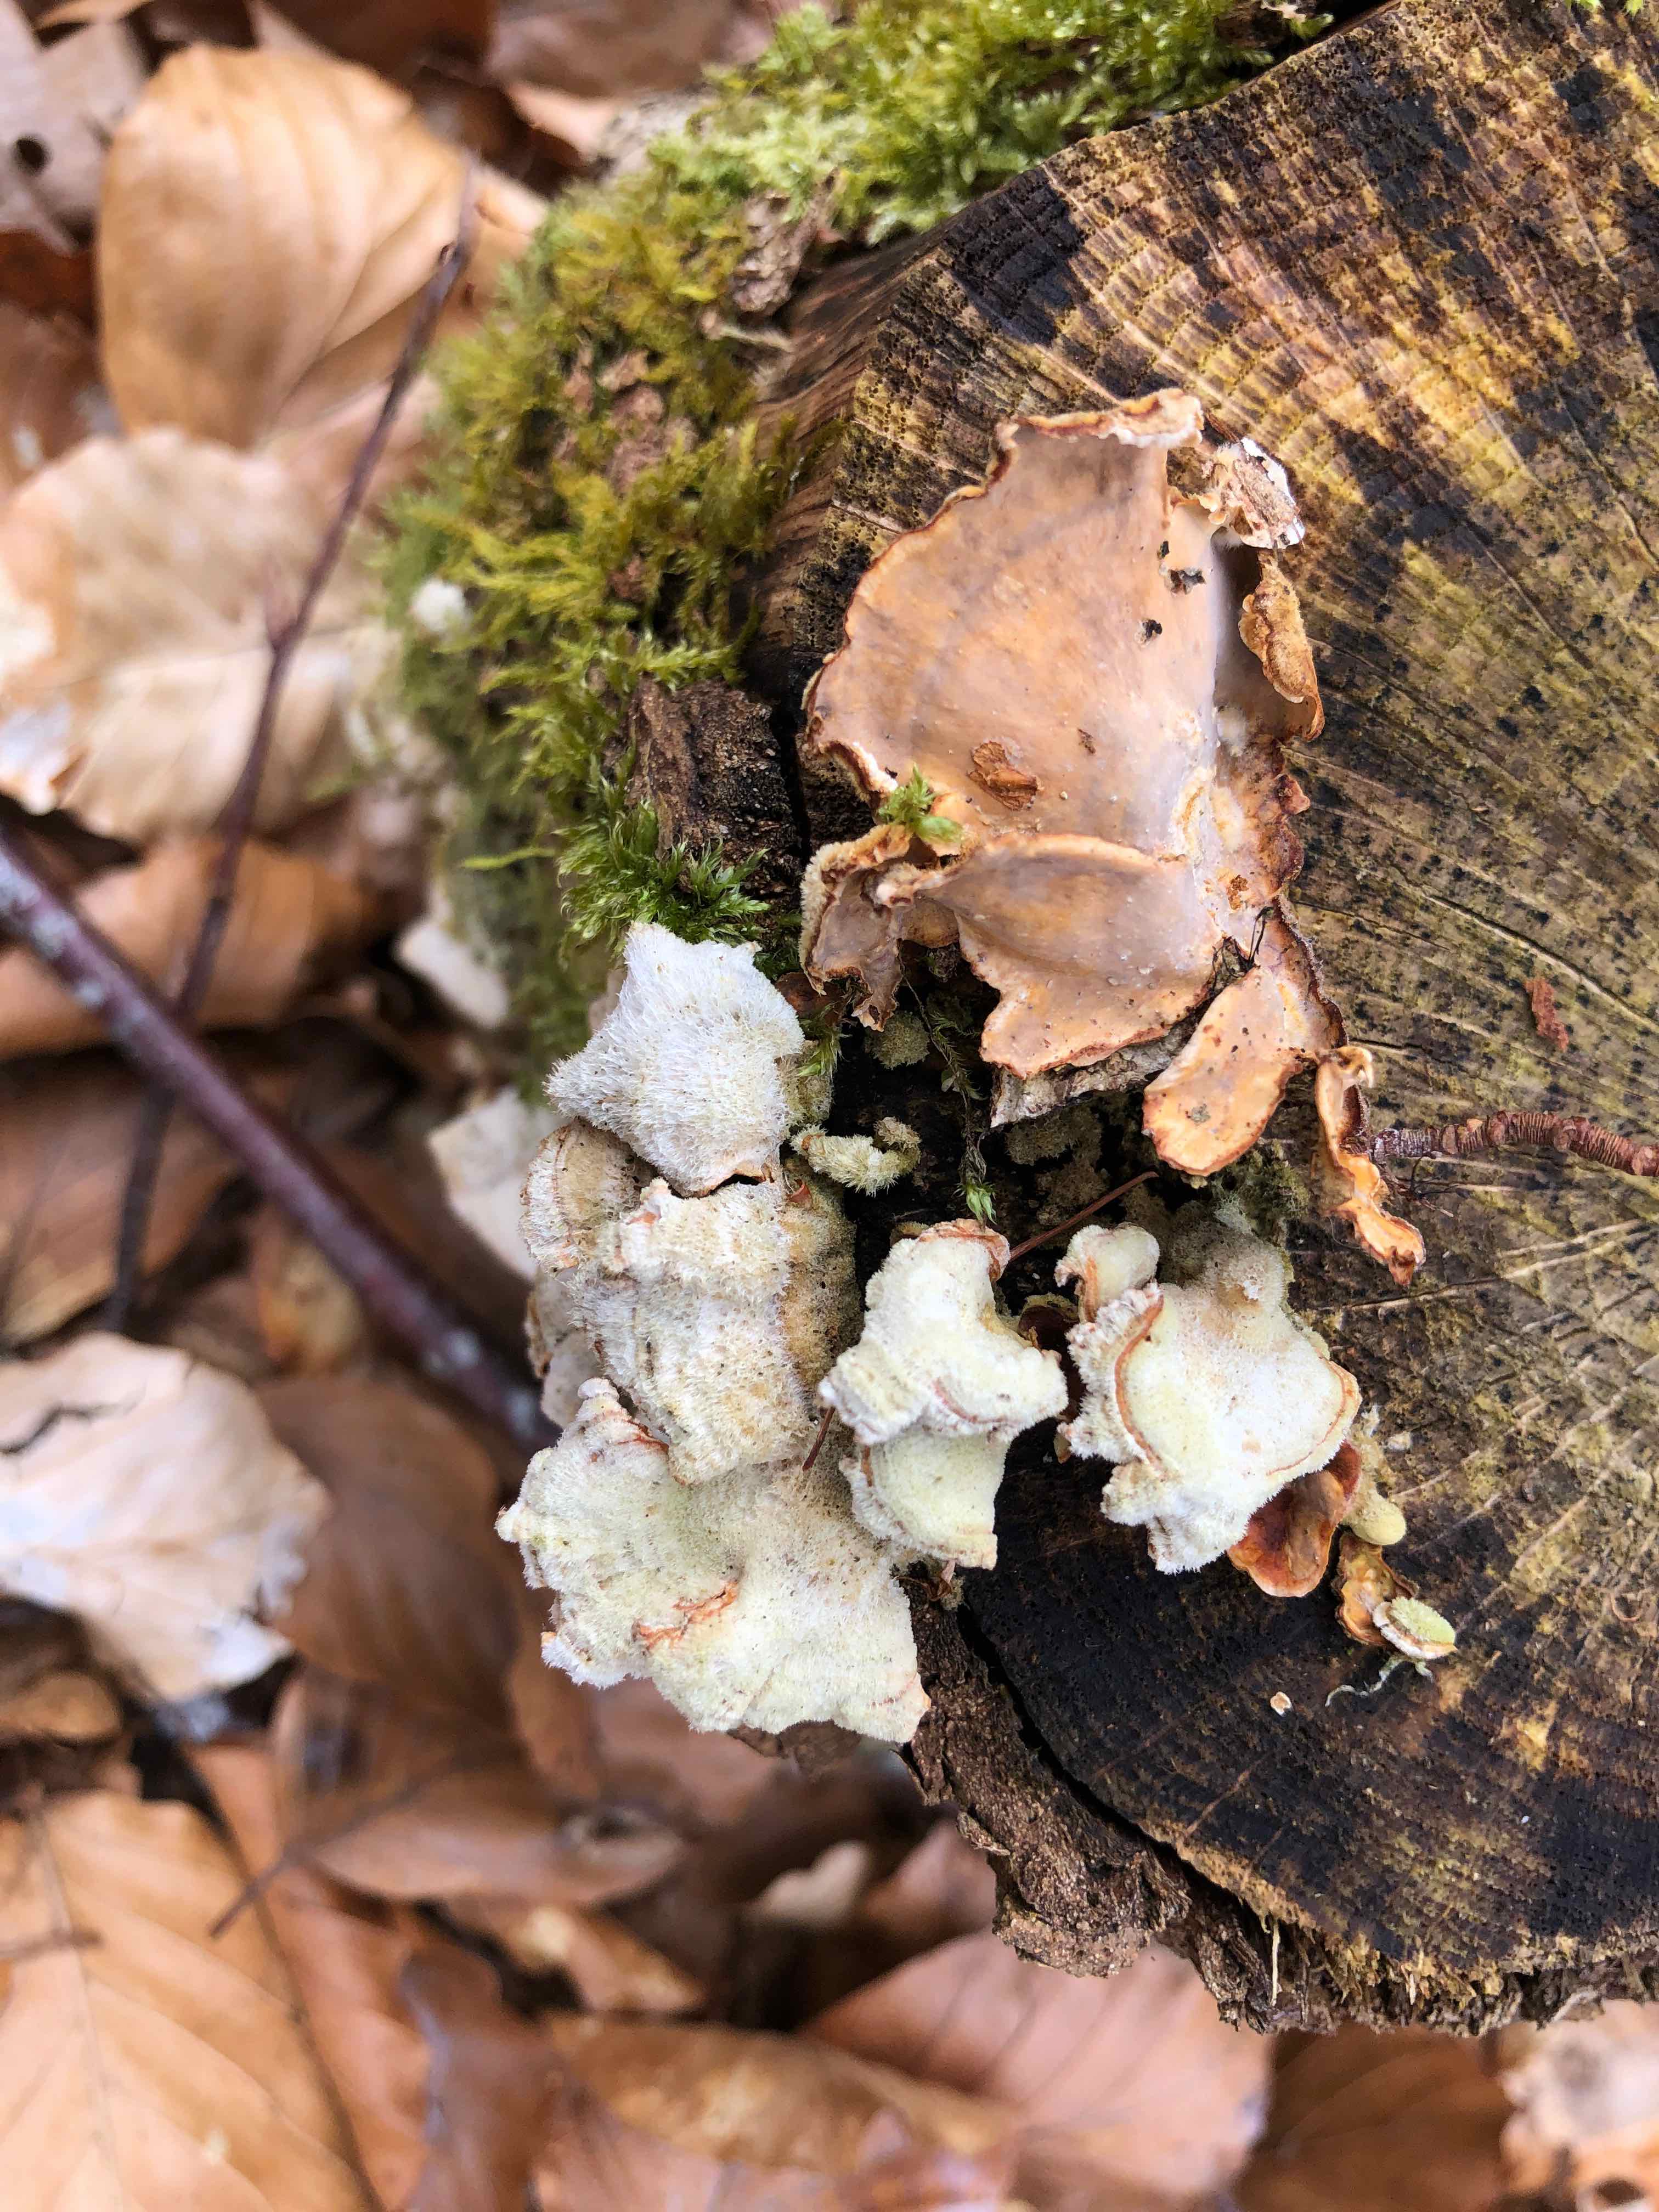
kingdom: Fungi
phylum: Basidiomycota
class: Agaricomycetes
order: Russulales
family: Stereaceae
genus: Stereum
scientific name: Stereum hirsutum
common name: håret lædersvamp
